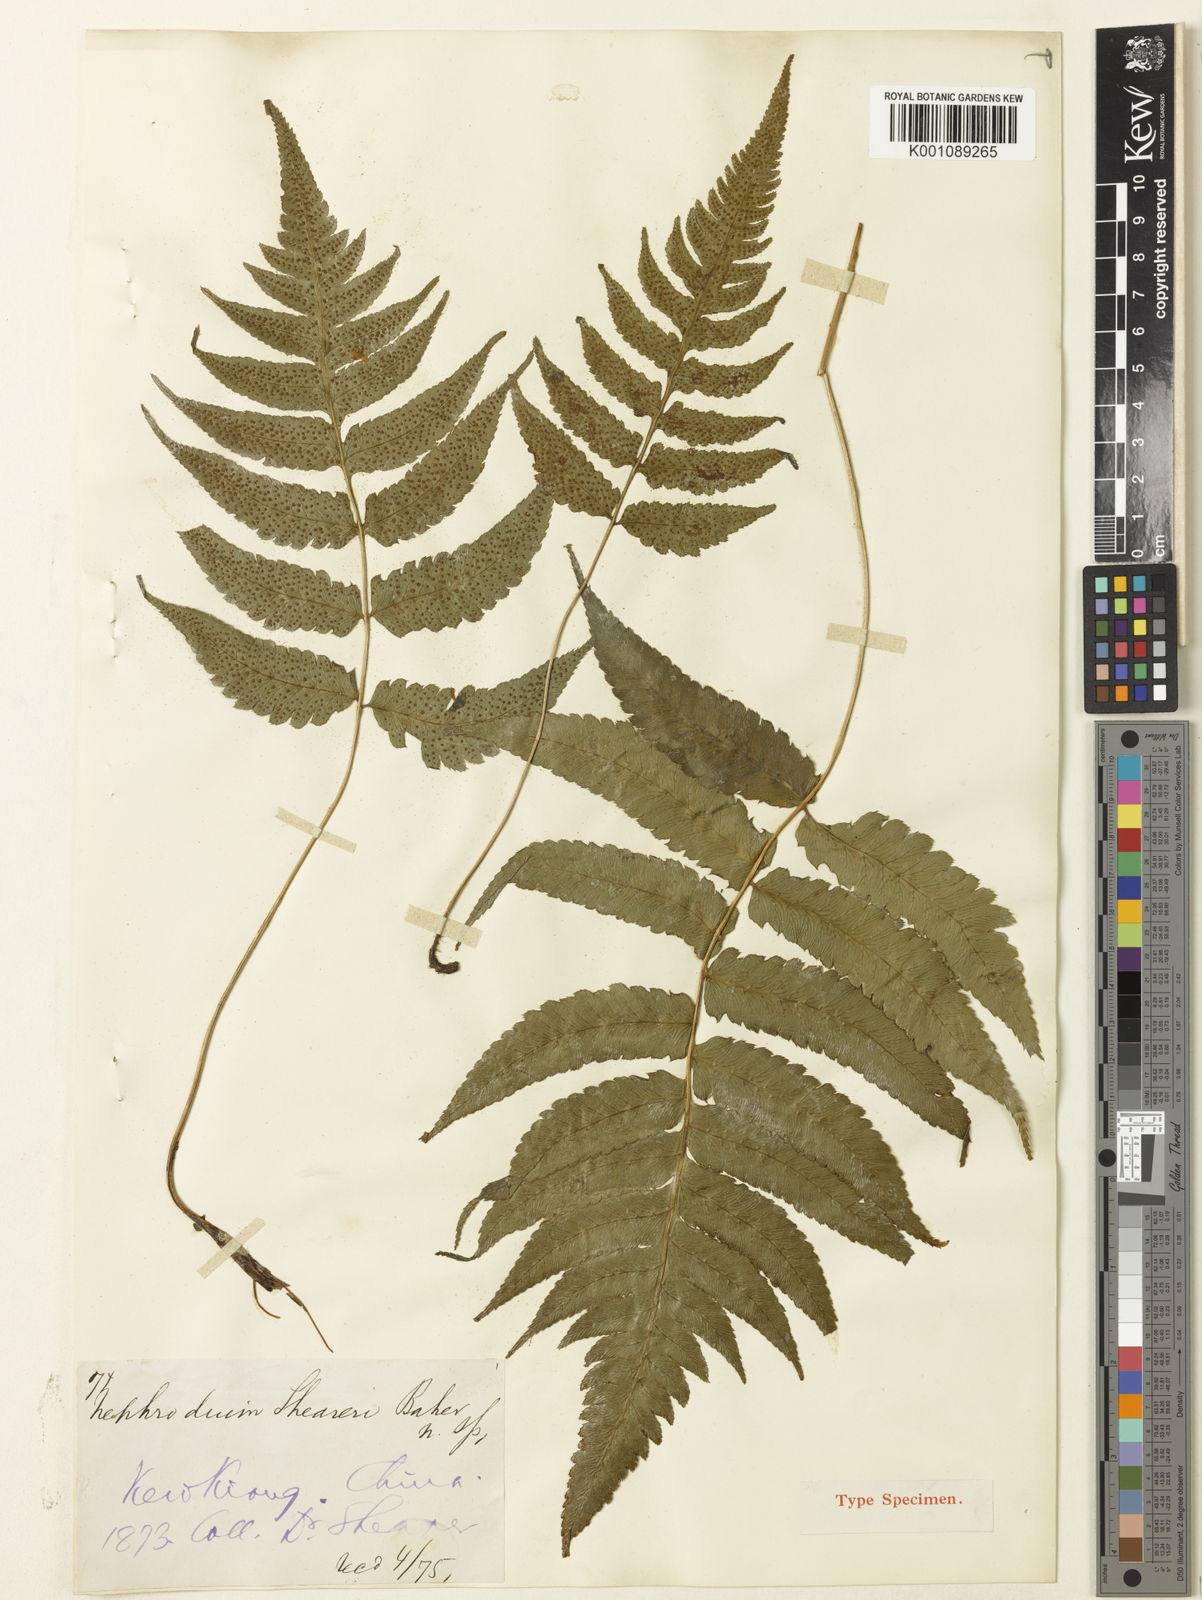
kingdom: Plantae
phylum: Tracheophyta
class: Polypodiopsida
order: Polypodiales
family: Athyriaceae
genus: Anisocampium
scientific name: Anisocampium sheareri
